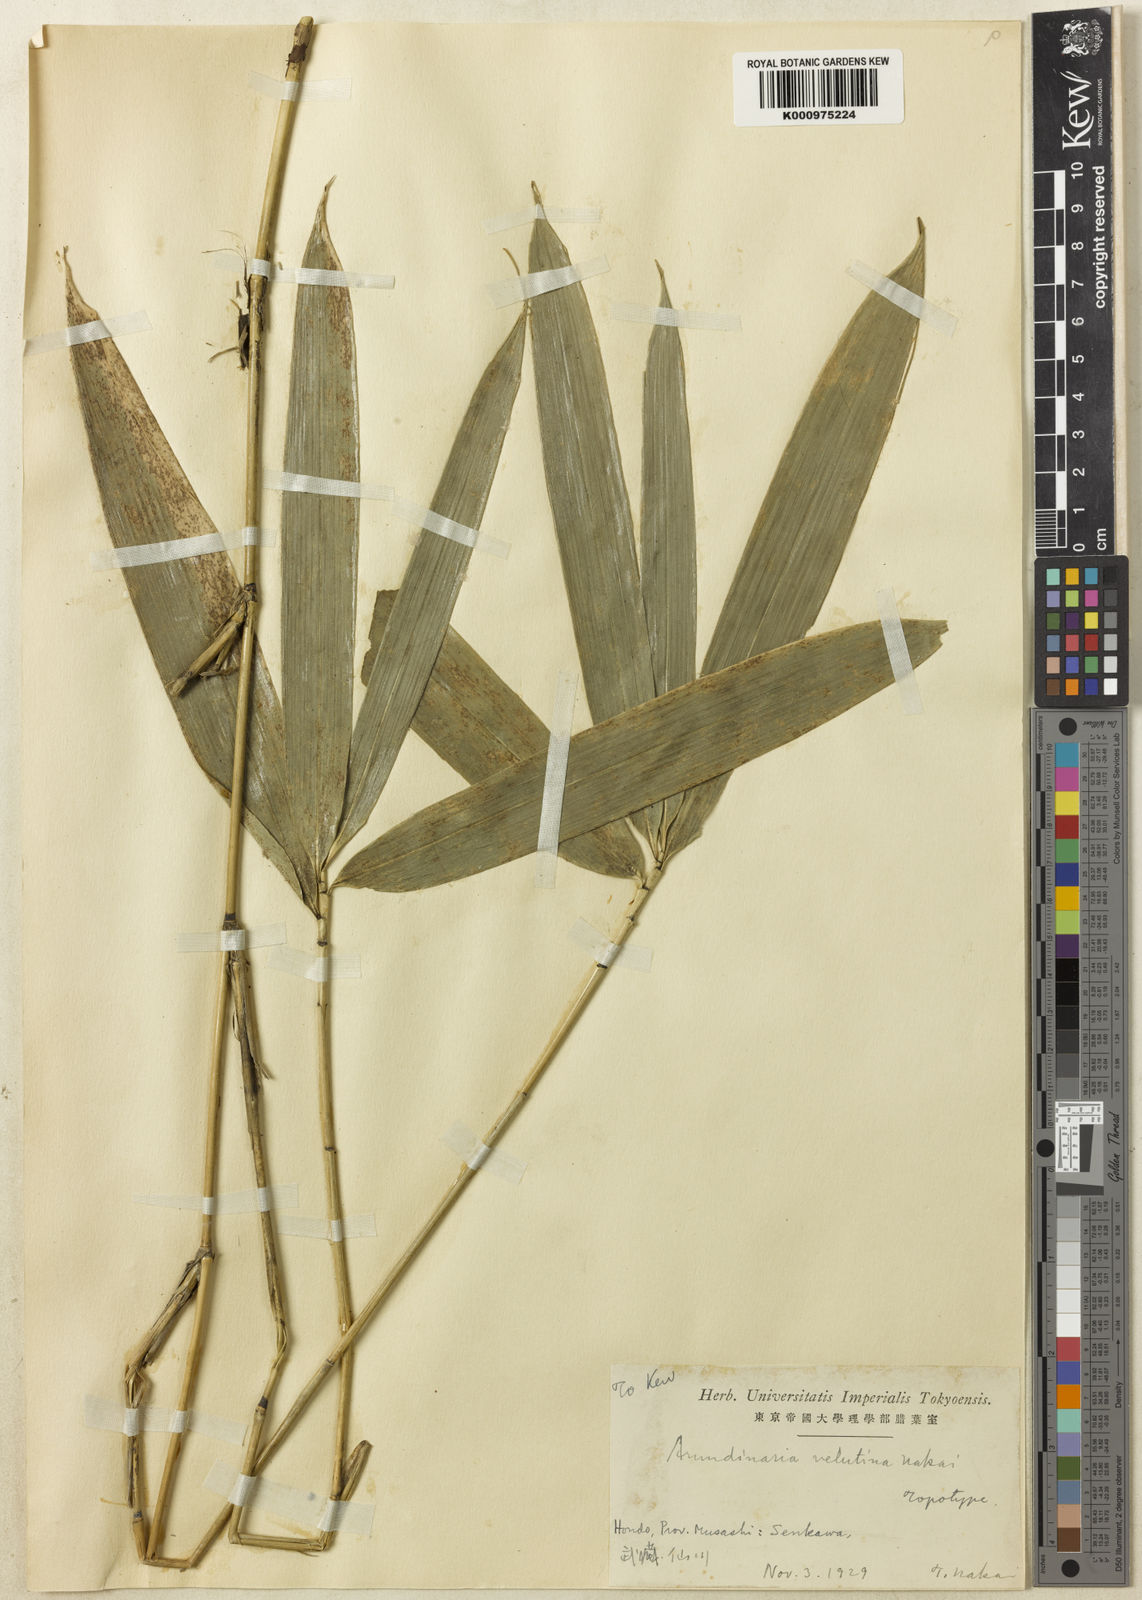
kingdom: Plantae
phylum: Tracheophyta
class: Liliopsida
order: Poales
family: Poaceae
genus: Sasaella
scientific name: Sasaella ramosa
